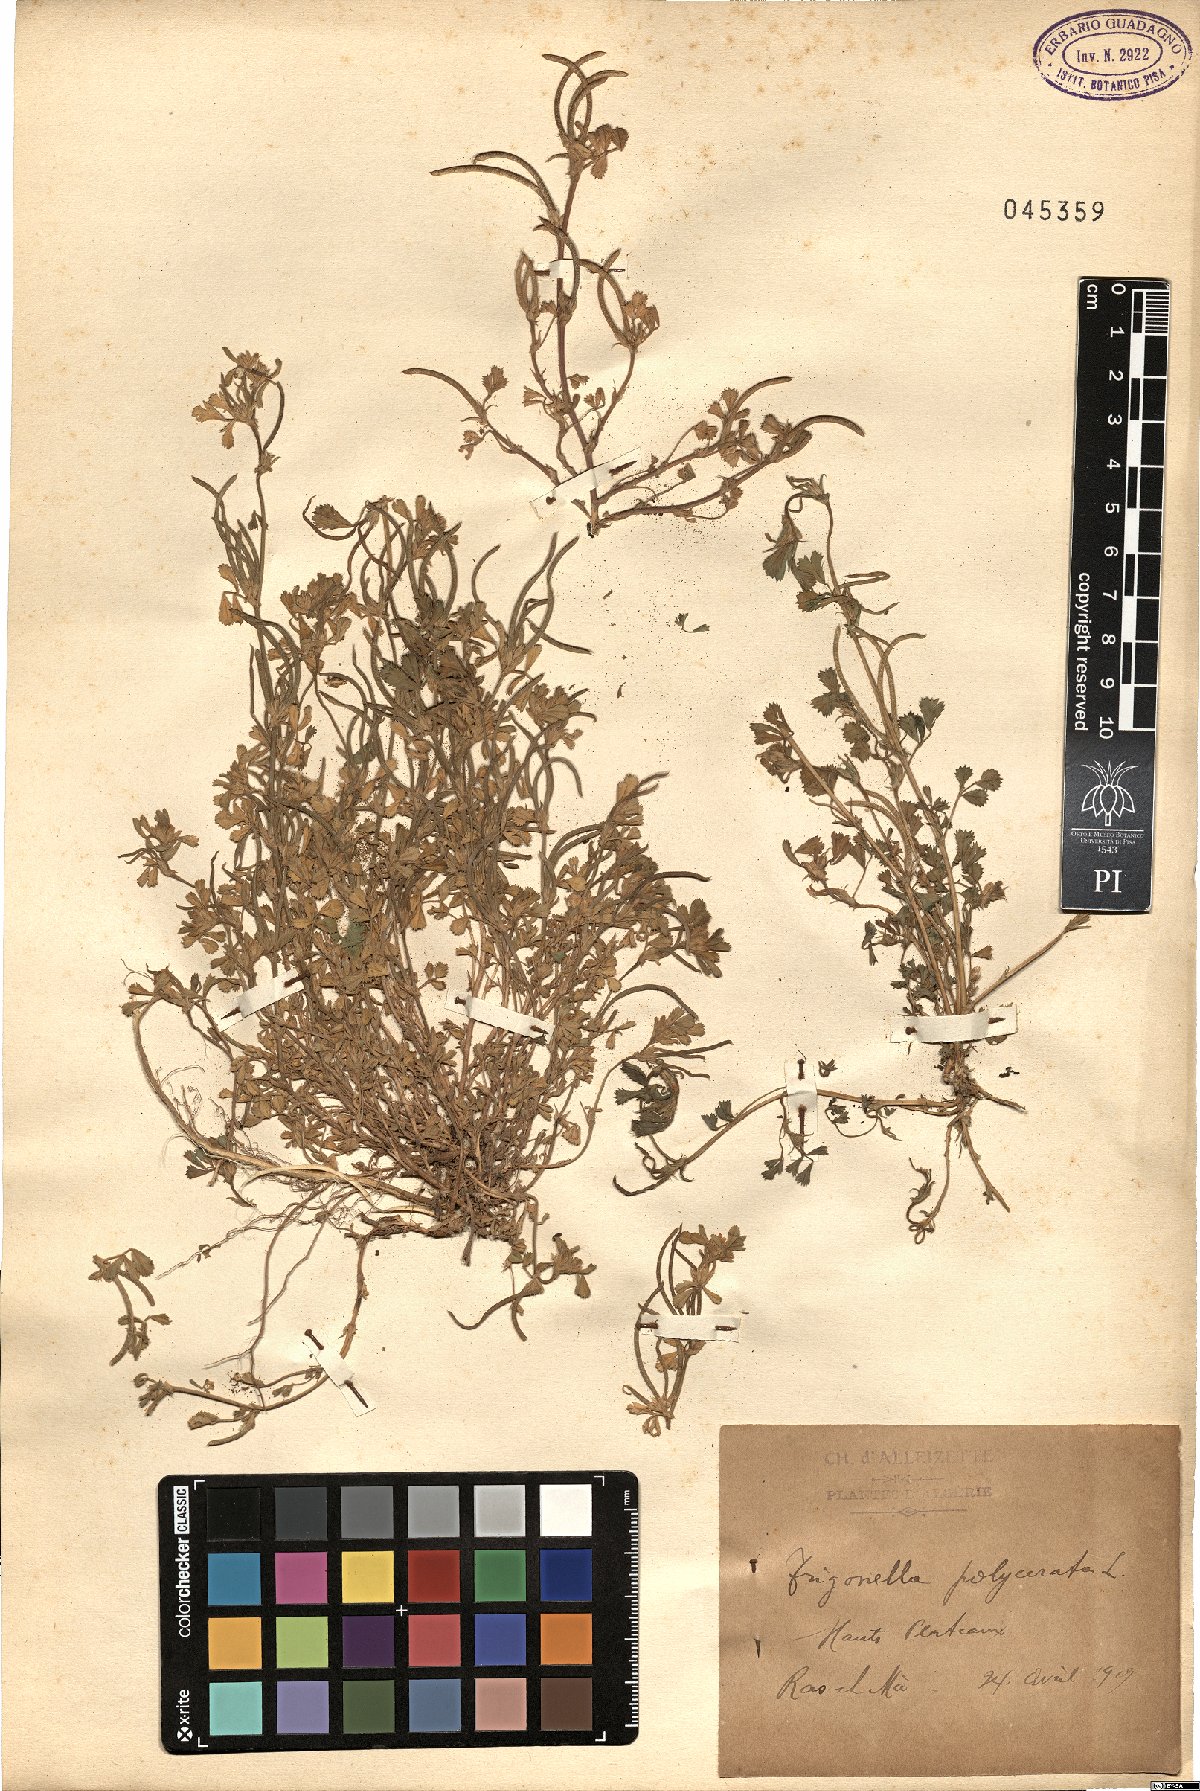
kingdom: Plantae
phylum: Tracheophyta
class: Magnoliopsida
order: Fabales
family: Fabaceae
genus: Medicago
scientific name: Medicago polyceratia
